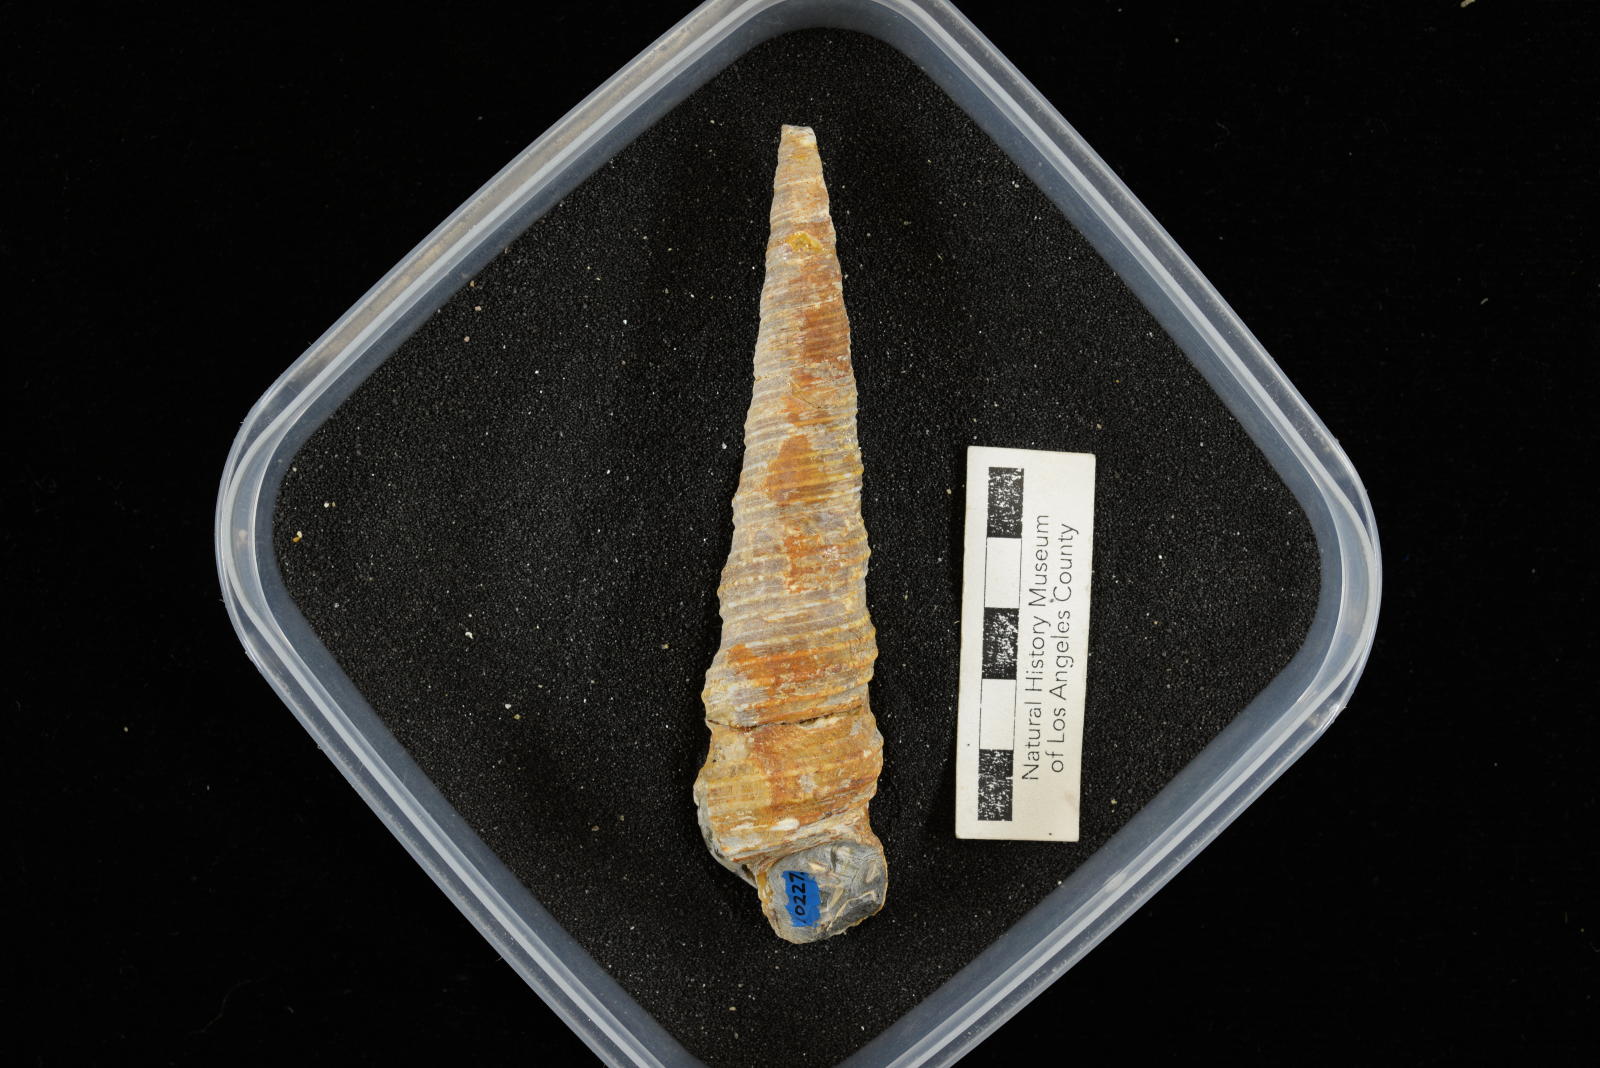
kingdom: Animalia
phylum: Mollusca
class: Gastropoda
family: Turritellidae
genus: Turritella
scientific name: Turritella chicoensis
